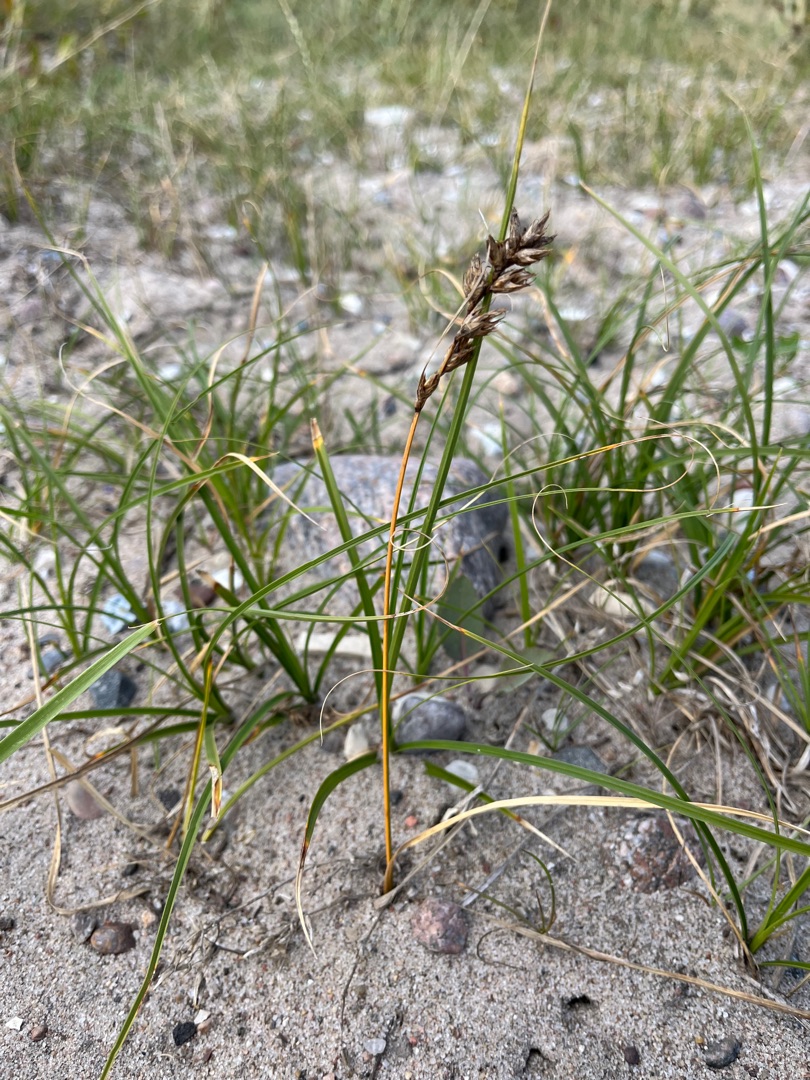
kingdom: Plantae
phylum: Tracheophyta
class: Liliopsida
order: Poales
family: Cyperaceae
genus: Carex
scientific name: Carex arenaria
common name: Sand-star
